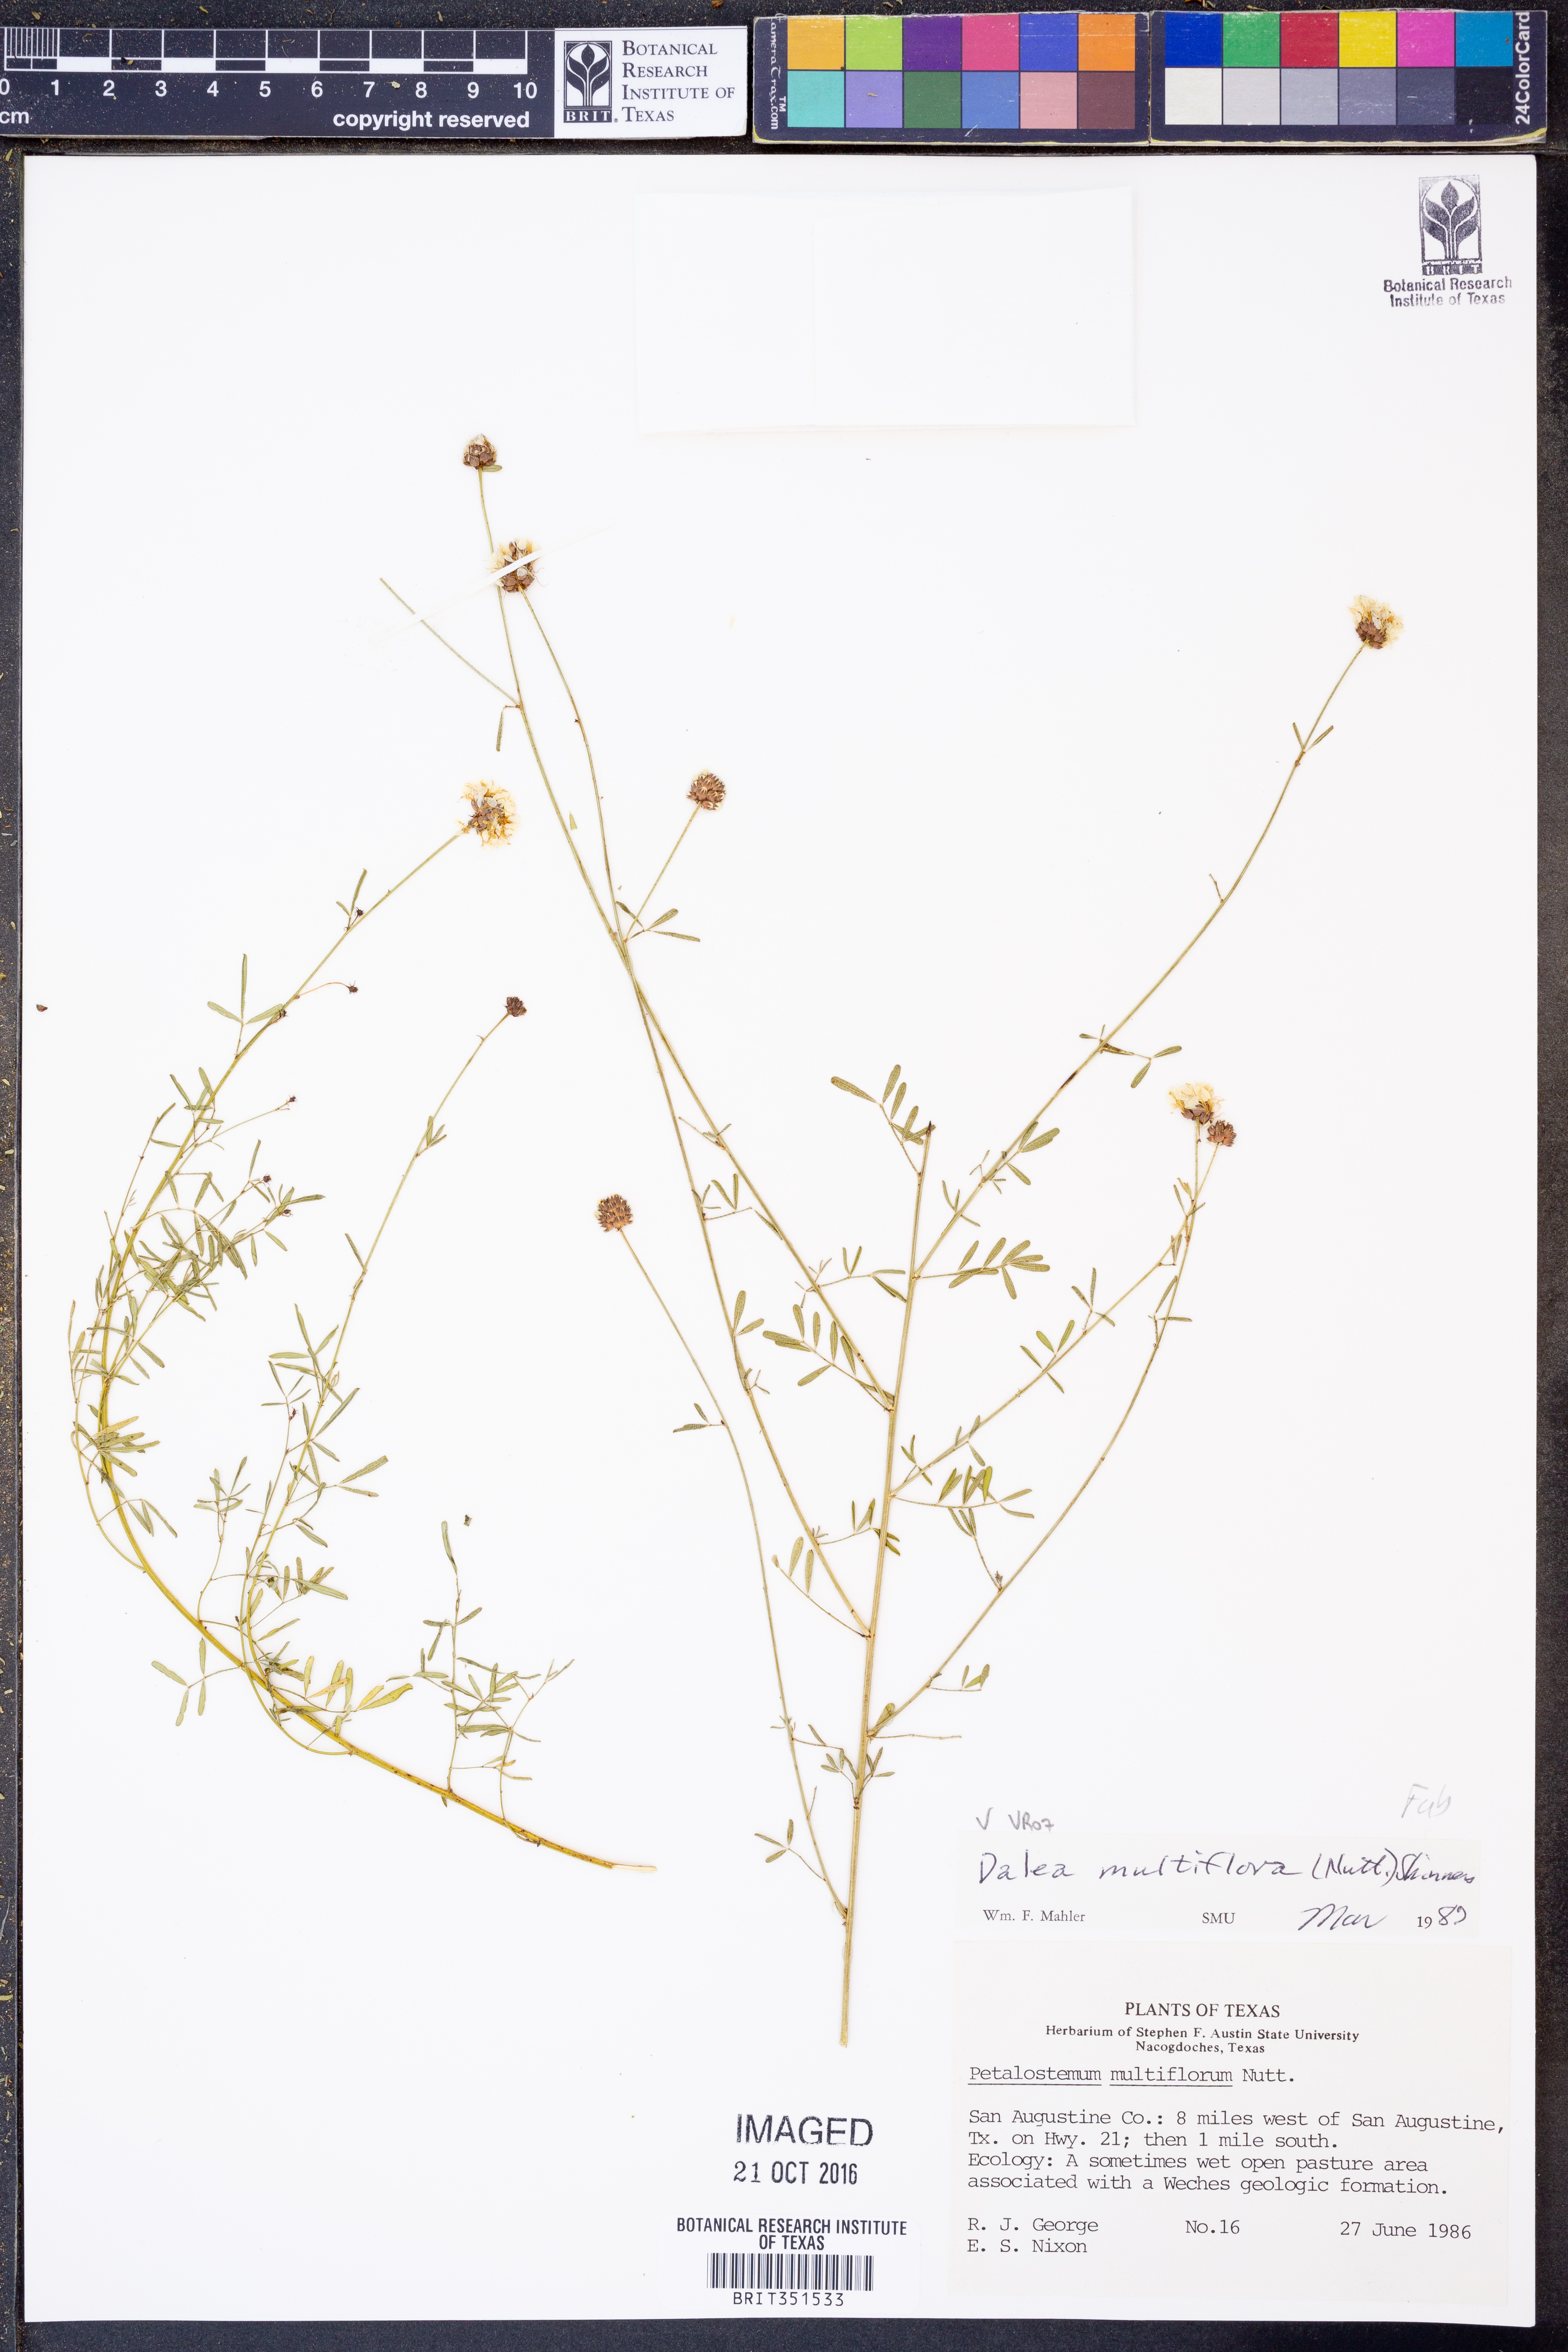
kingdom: Plantae
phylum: Tracheophyta
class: Magnoliopsida
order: Fabales
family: Fabaceae
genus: Dalea
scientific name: Dalea multiflora
